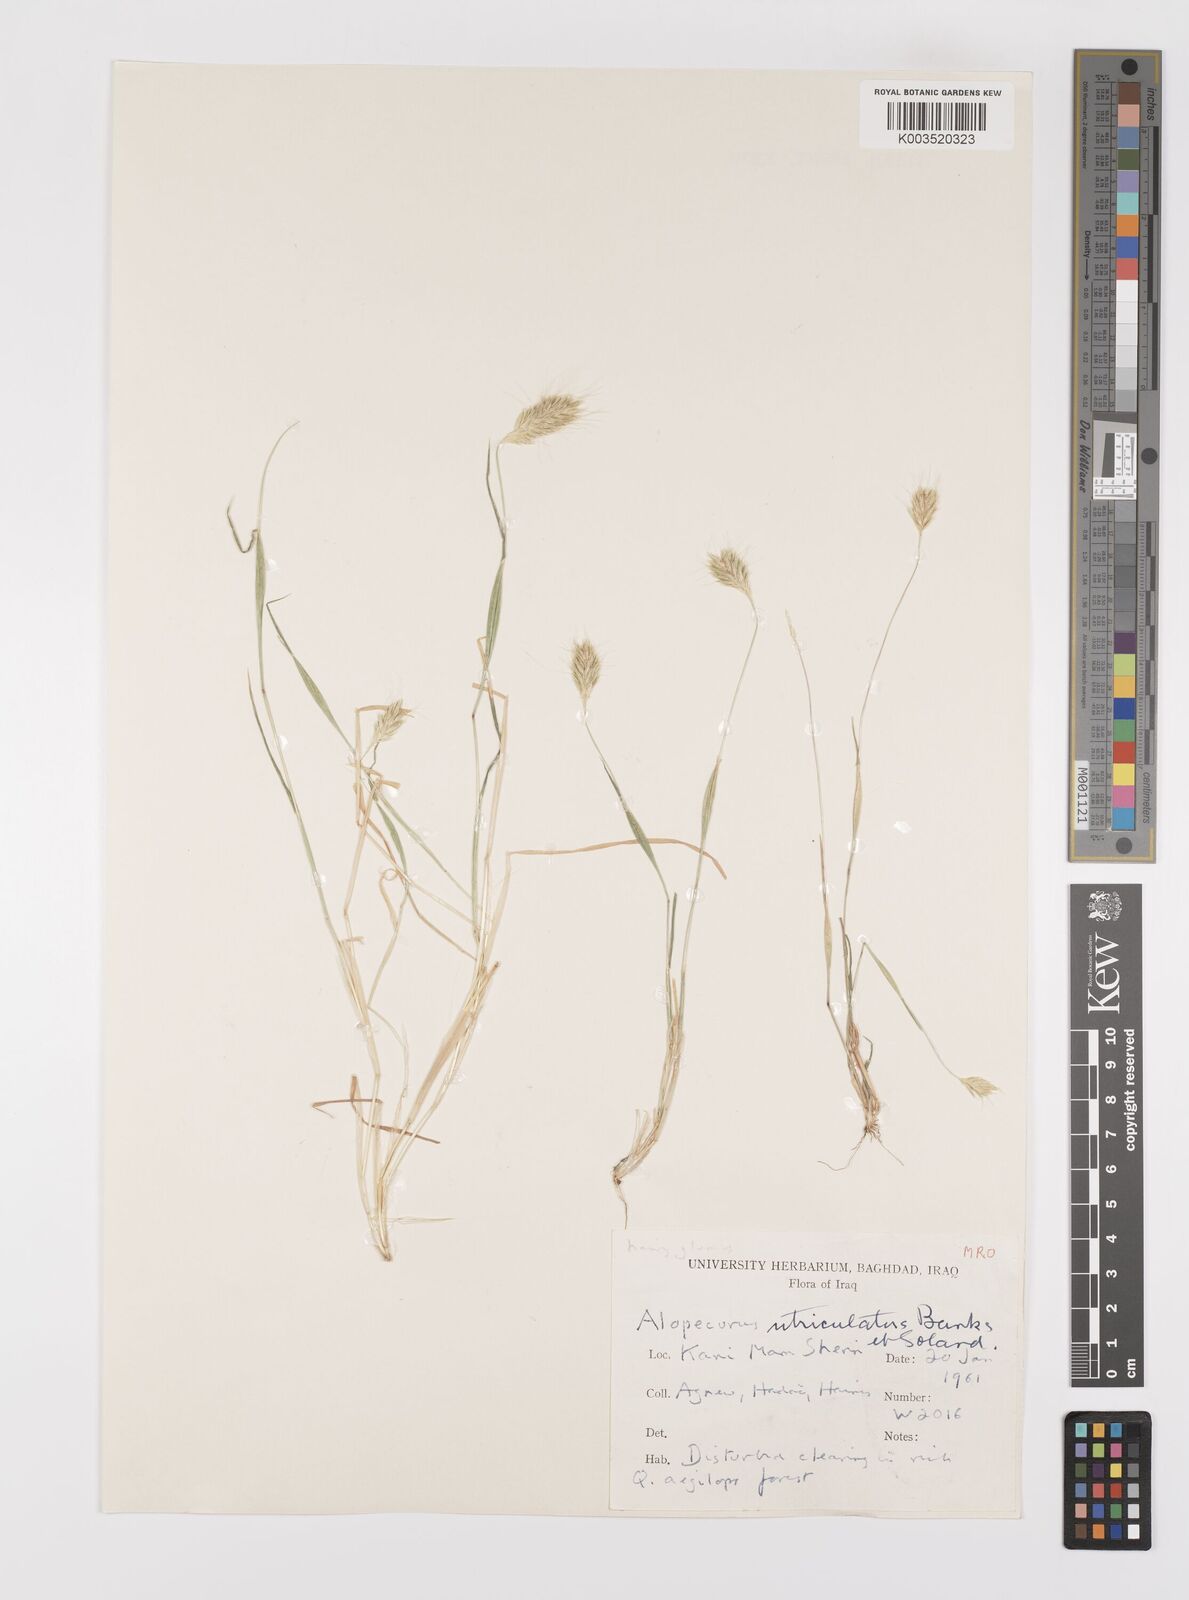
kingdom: Plantae
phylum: Tracheophyta
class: Liliopsida
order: Poales
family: Poaceae
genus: Alopecurus
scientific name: Alopecurus utriculatus
